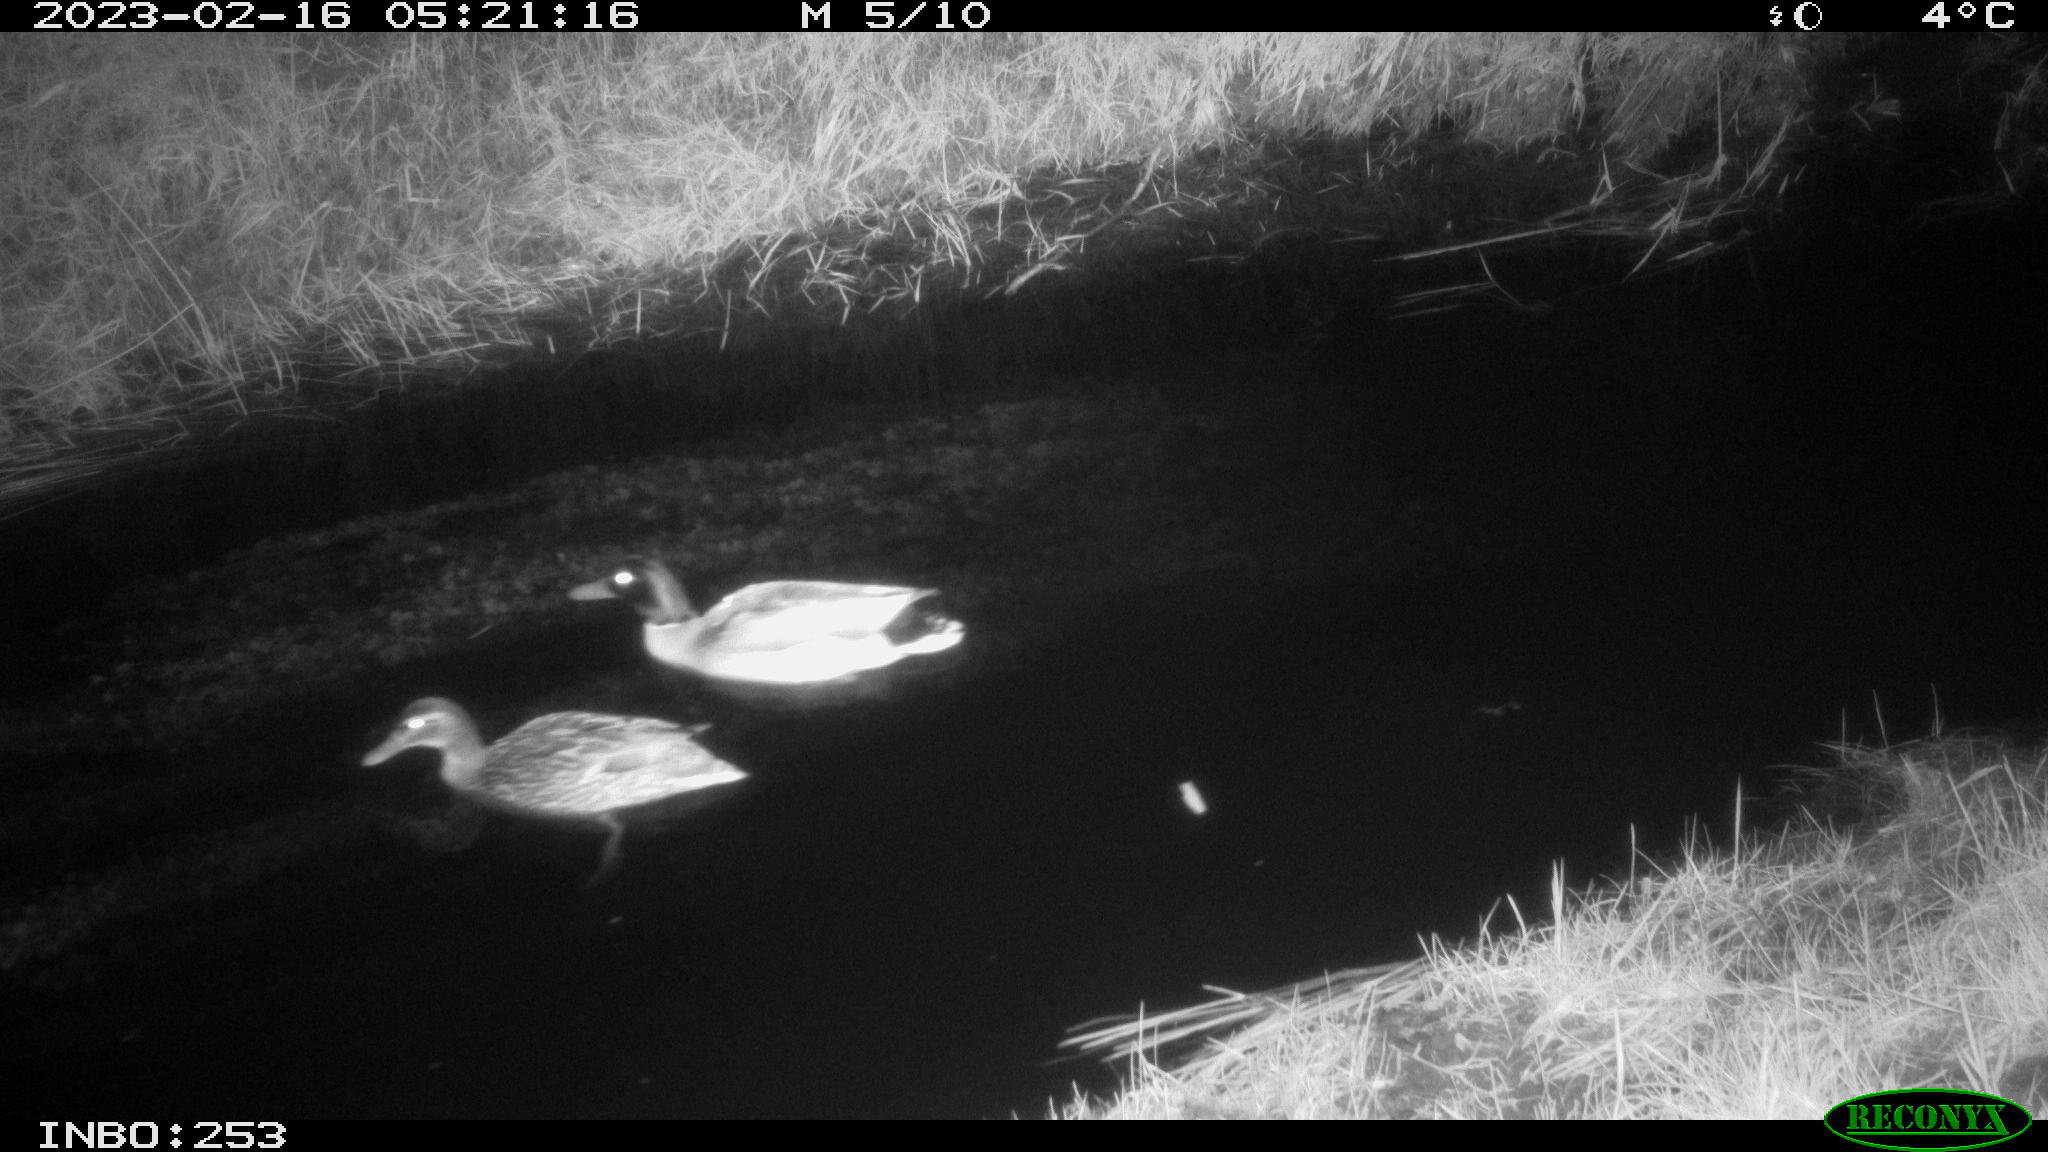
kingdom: Animalia
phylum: Chordata
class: Aves
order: Anseriformes
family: Anatidae
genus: Anas
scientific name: Anas
